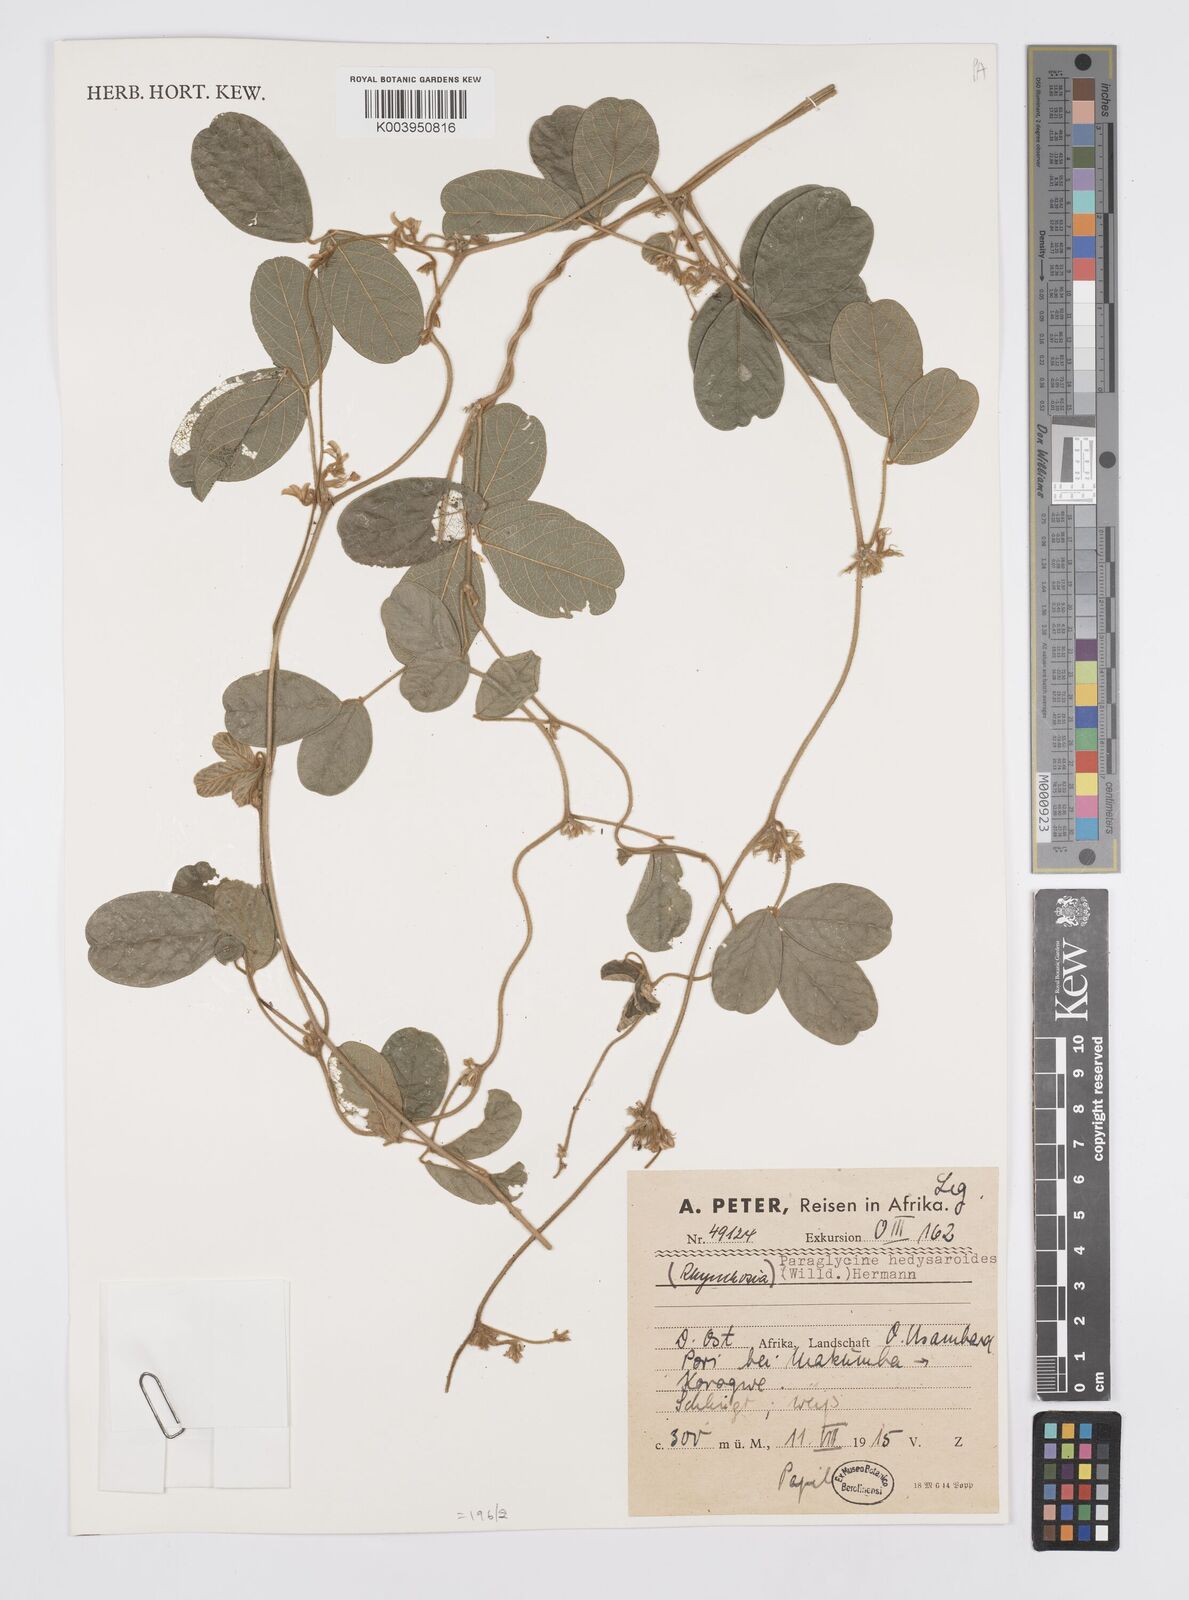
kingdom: Plantae
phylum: Tracheophyta
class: Magnoliopsida
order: Fabales
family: Fabaceae
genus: Ophrestia
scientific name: Ophrestia hedysaroides
